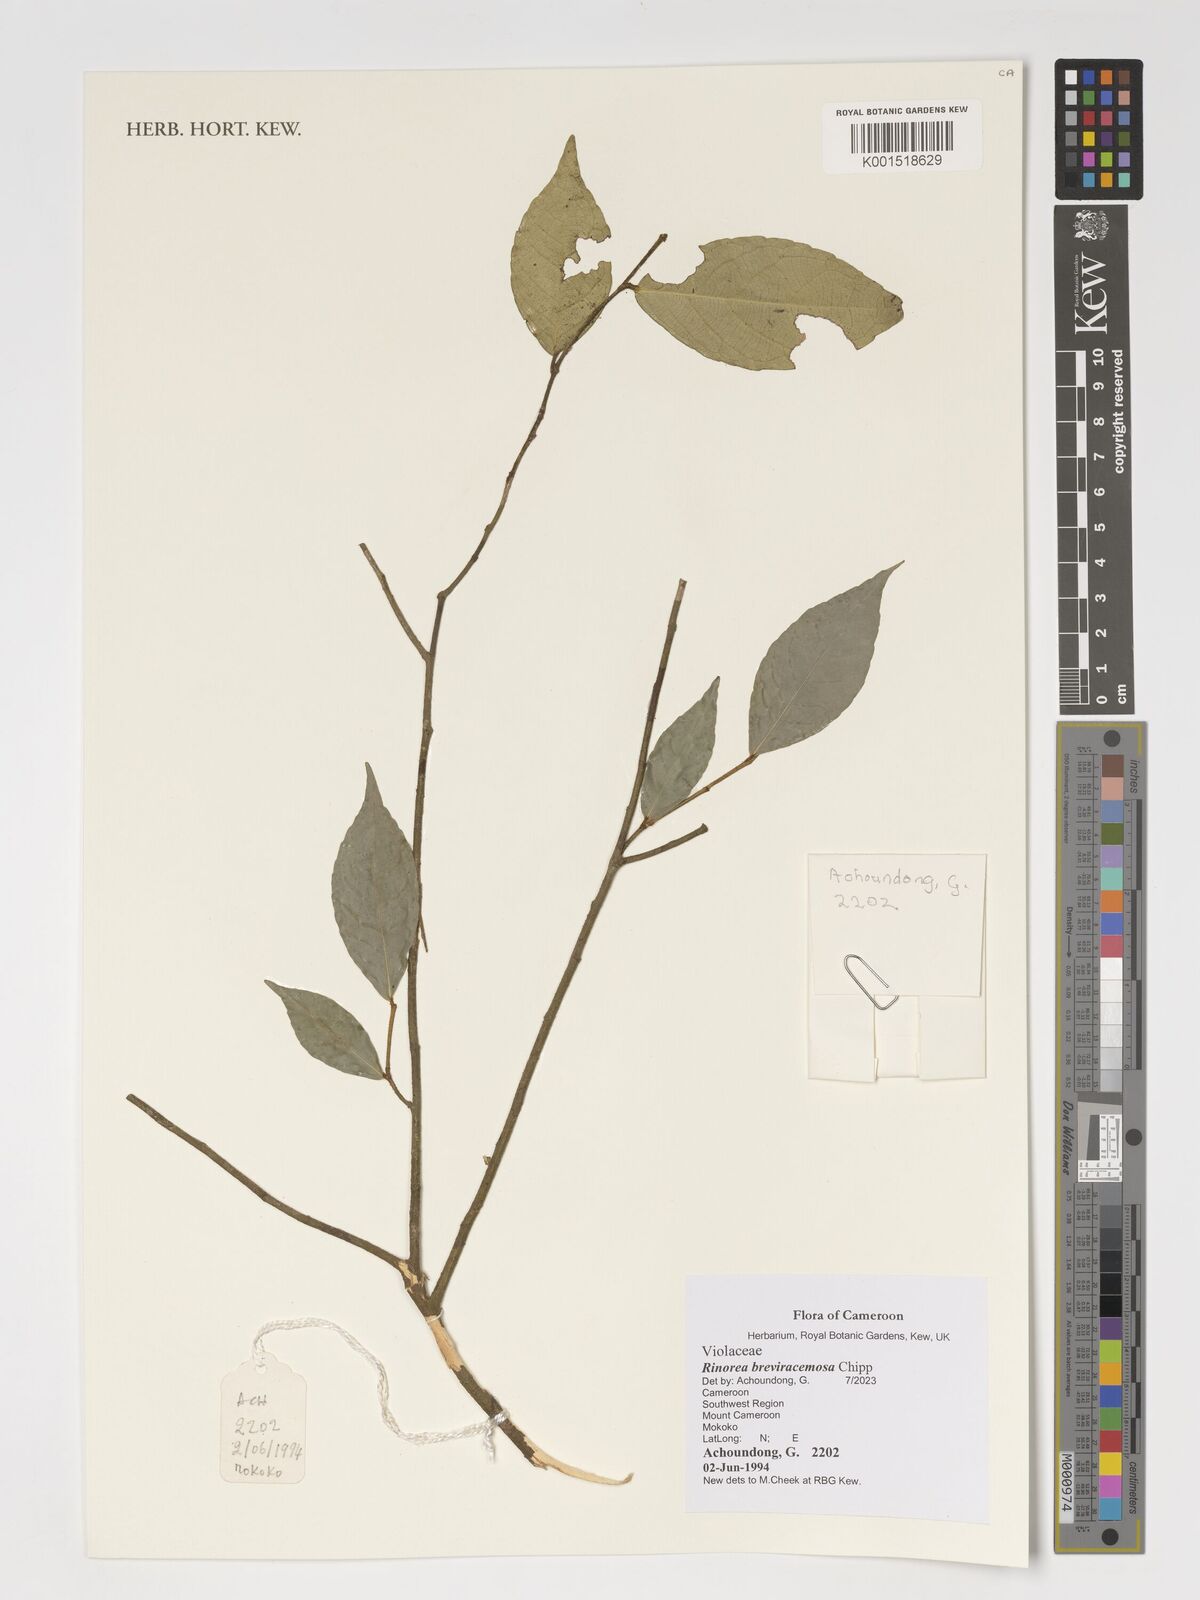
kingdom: Plantae
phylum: Tracheophyta
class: Magnoliopsida
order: Malpighiales
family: Violaceae
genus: Rinorea
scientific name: Rinorea breviracemosa
